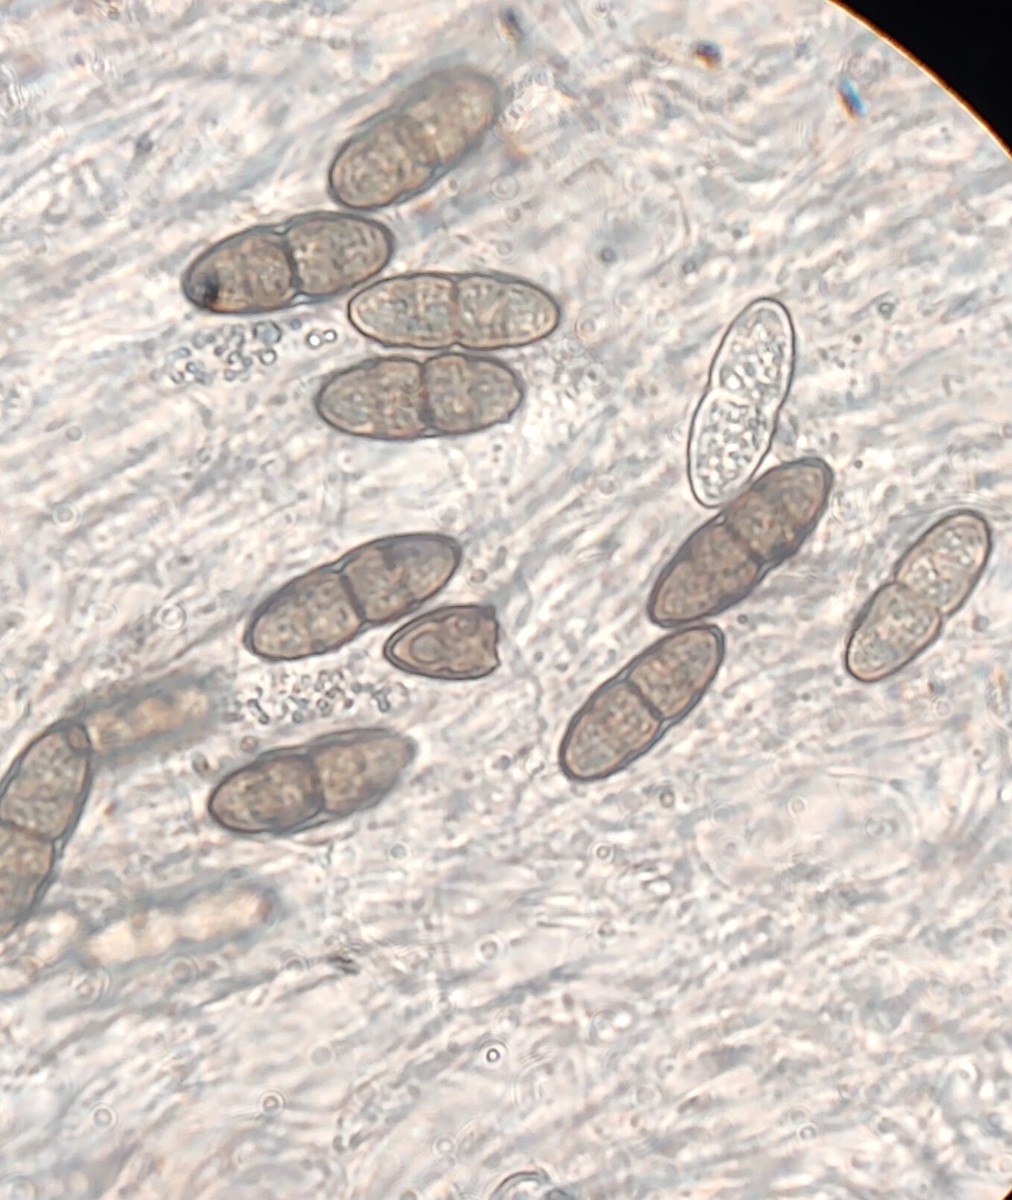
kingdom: Plantae
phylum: Bryophyta
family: Dothideomycetes
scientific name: Dothideomycetes
